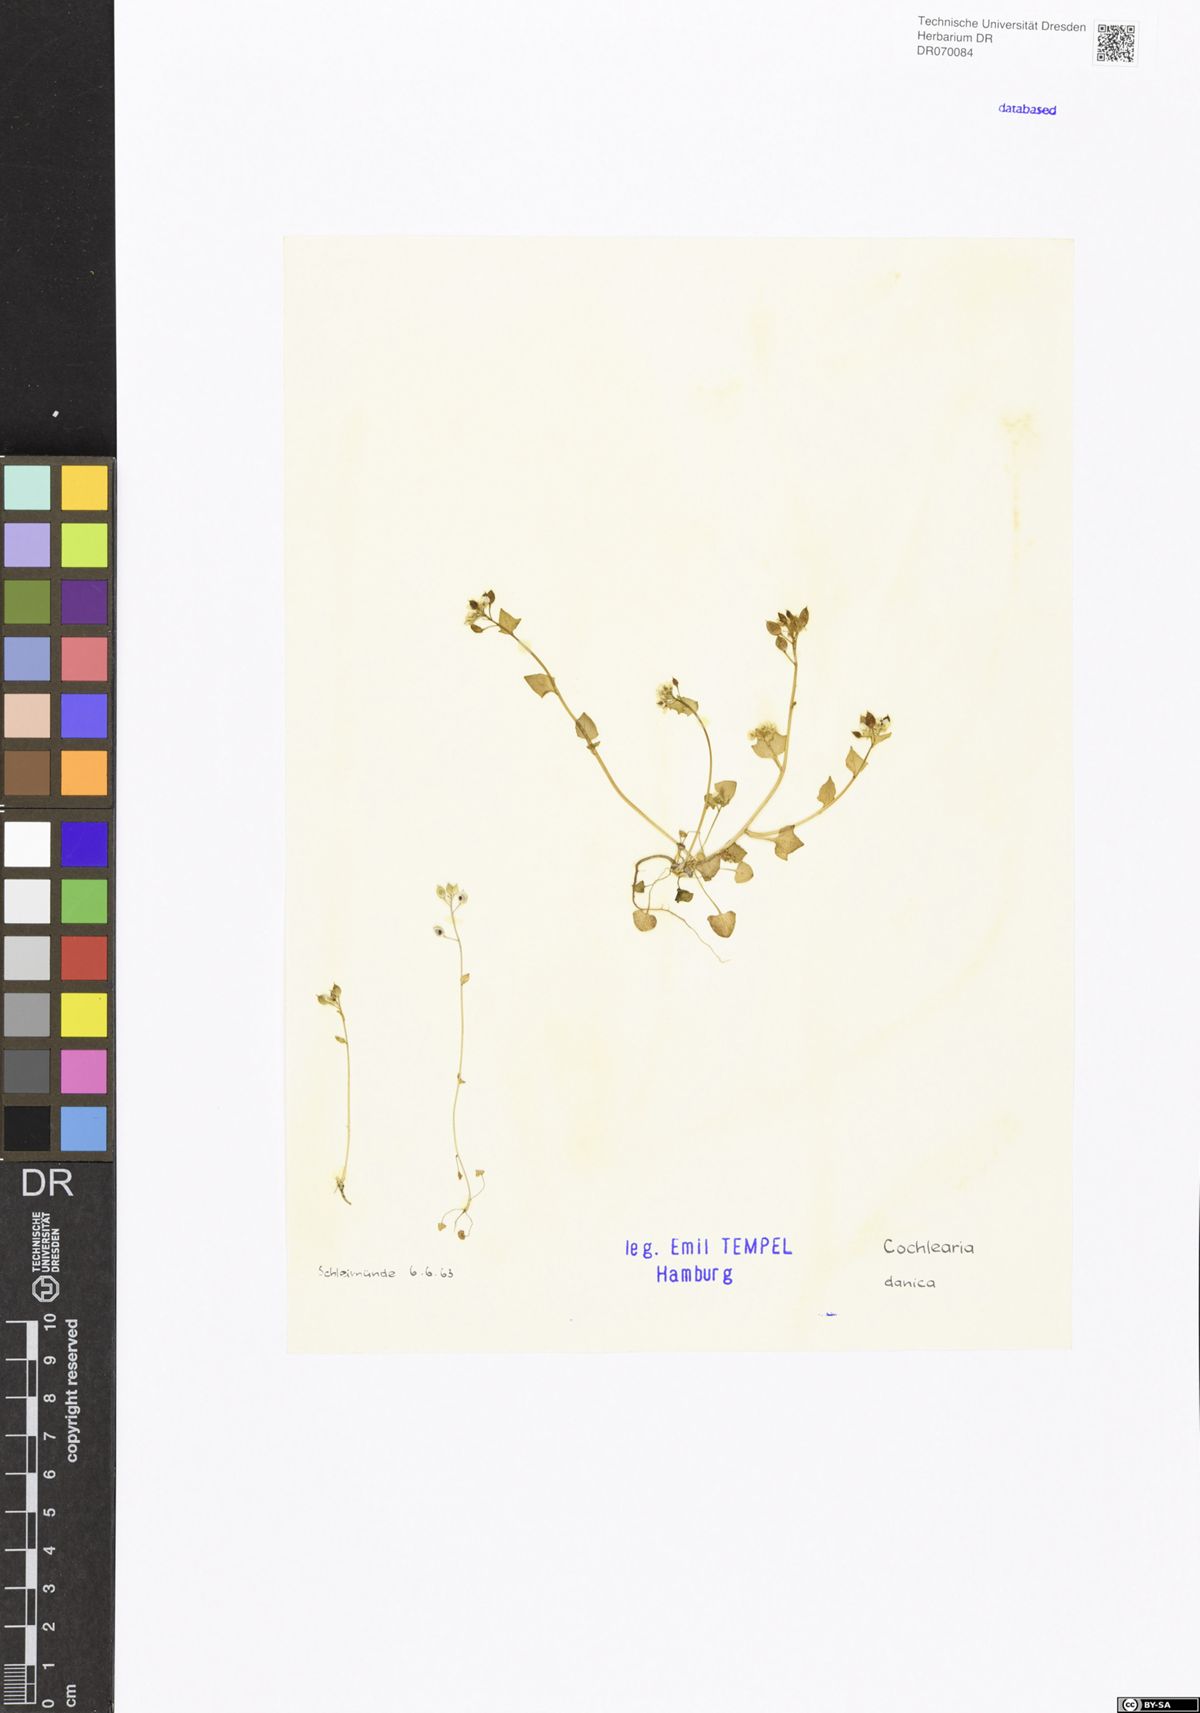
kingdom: Plantae
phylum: Tracheophyta
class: Magnoliopsida
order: Brassicales
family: Brassicaceae
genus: Cochlearia
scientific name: Cochlearia danica
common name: Early scurvygrass
